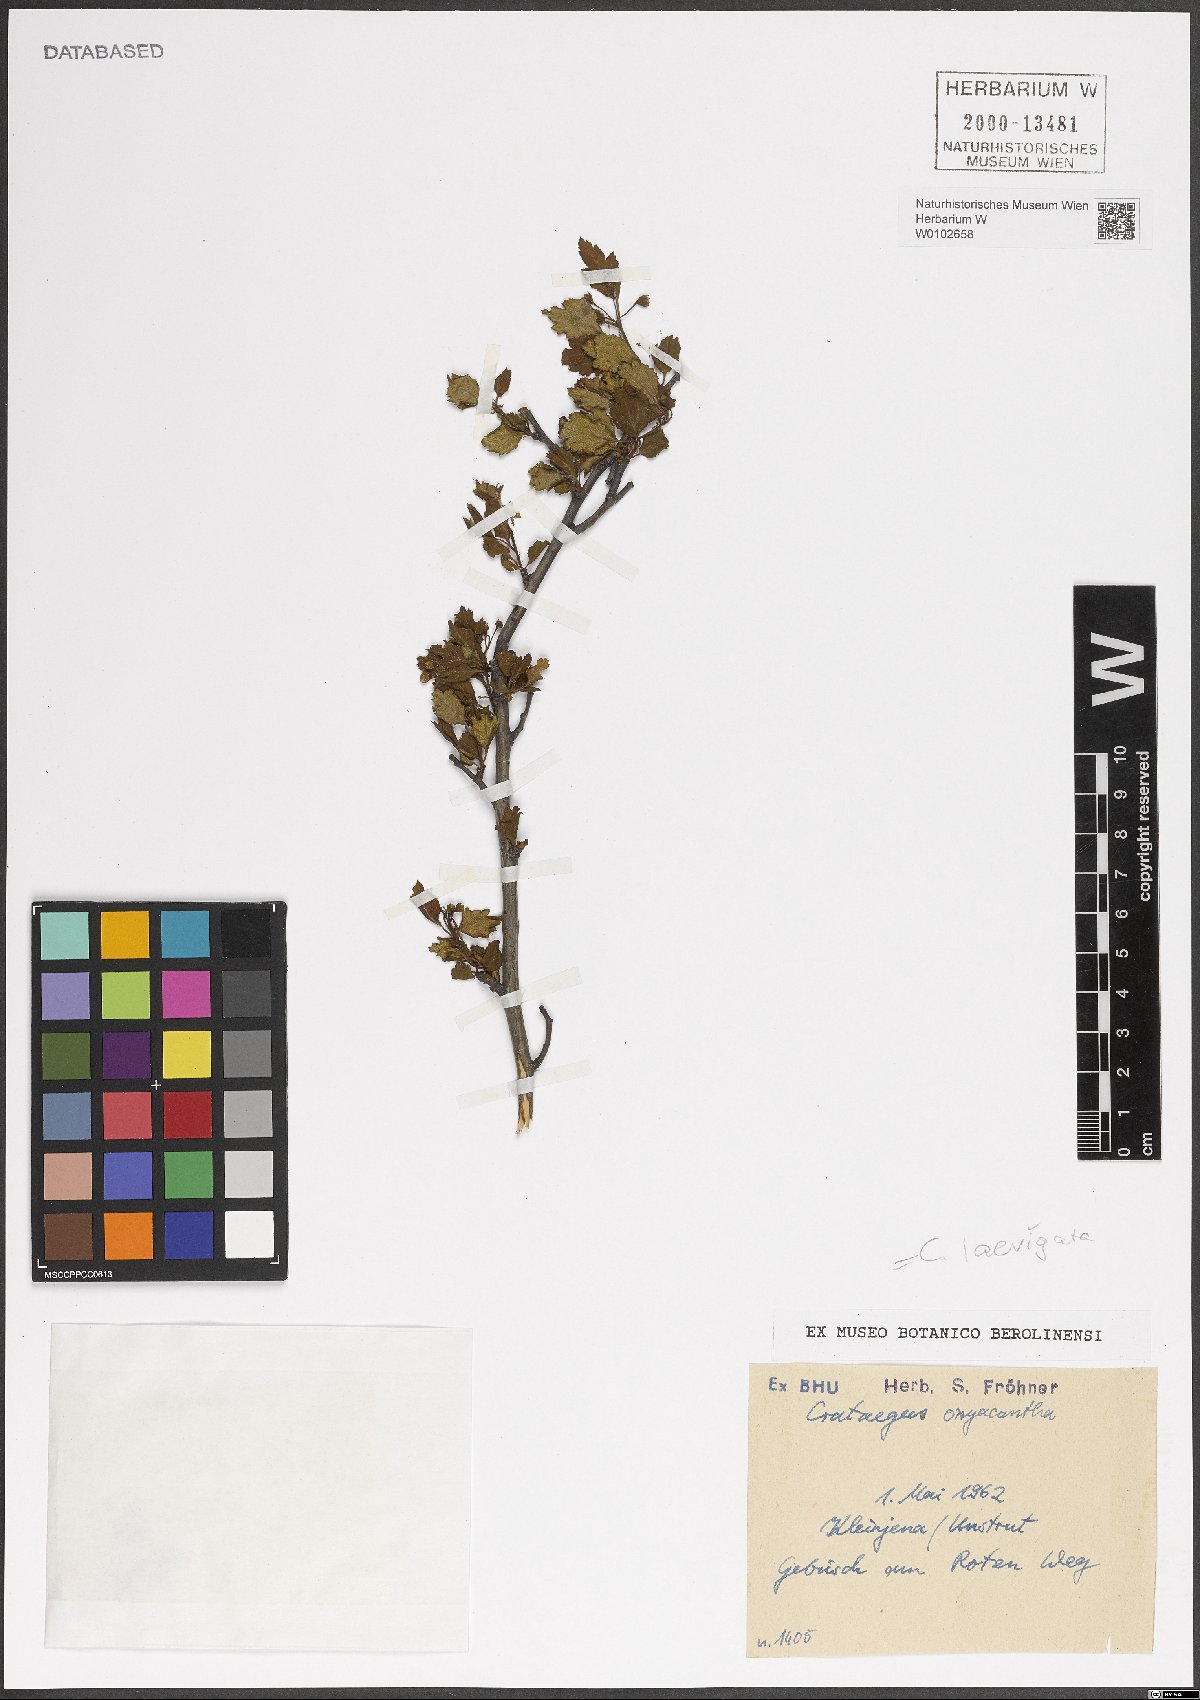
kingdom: Plantae
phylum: Tracheophyta
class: Magnoliopsida
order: Rosales
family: Rosaceae
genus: Crataegus
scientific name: Crataegus laevigata
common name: Midland hawthorn
